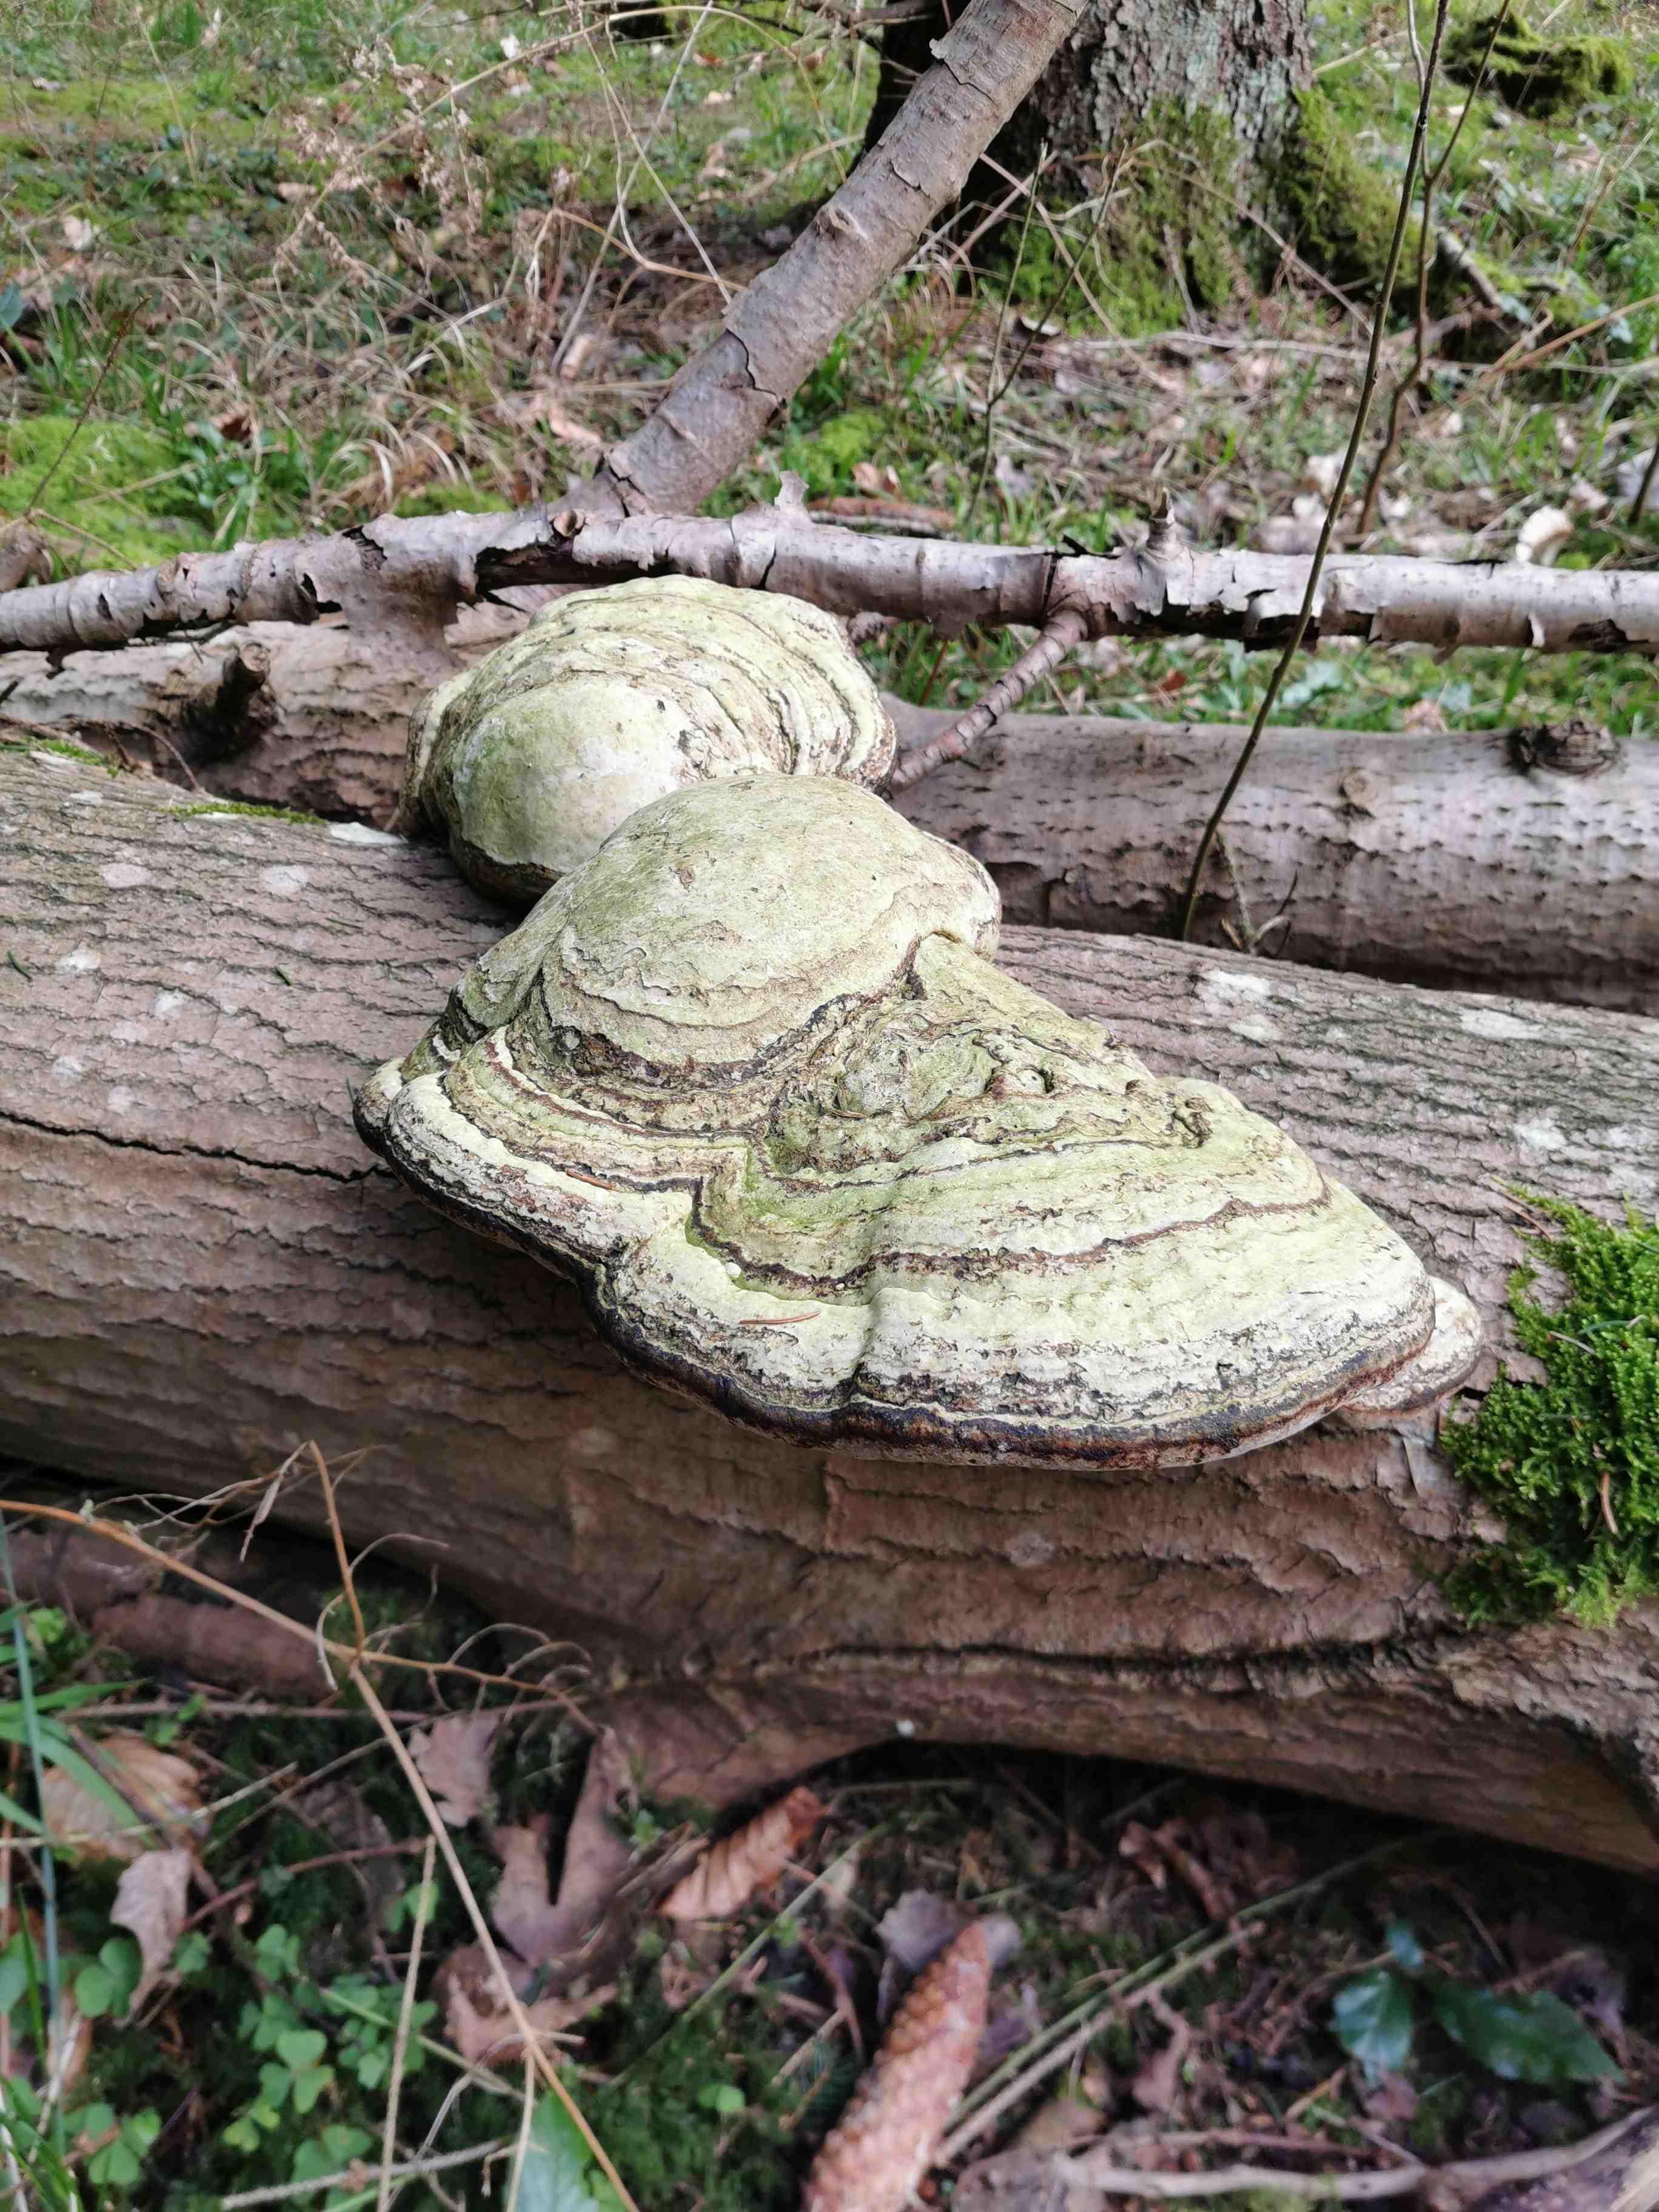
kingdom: Fungi
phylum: Basidiomycota
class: Agaricomycetes
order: Polyporales
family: Polyporaceae
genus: Fomes
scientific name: Fomes fomentarius
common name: tøndersvamp
